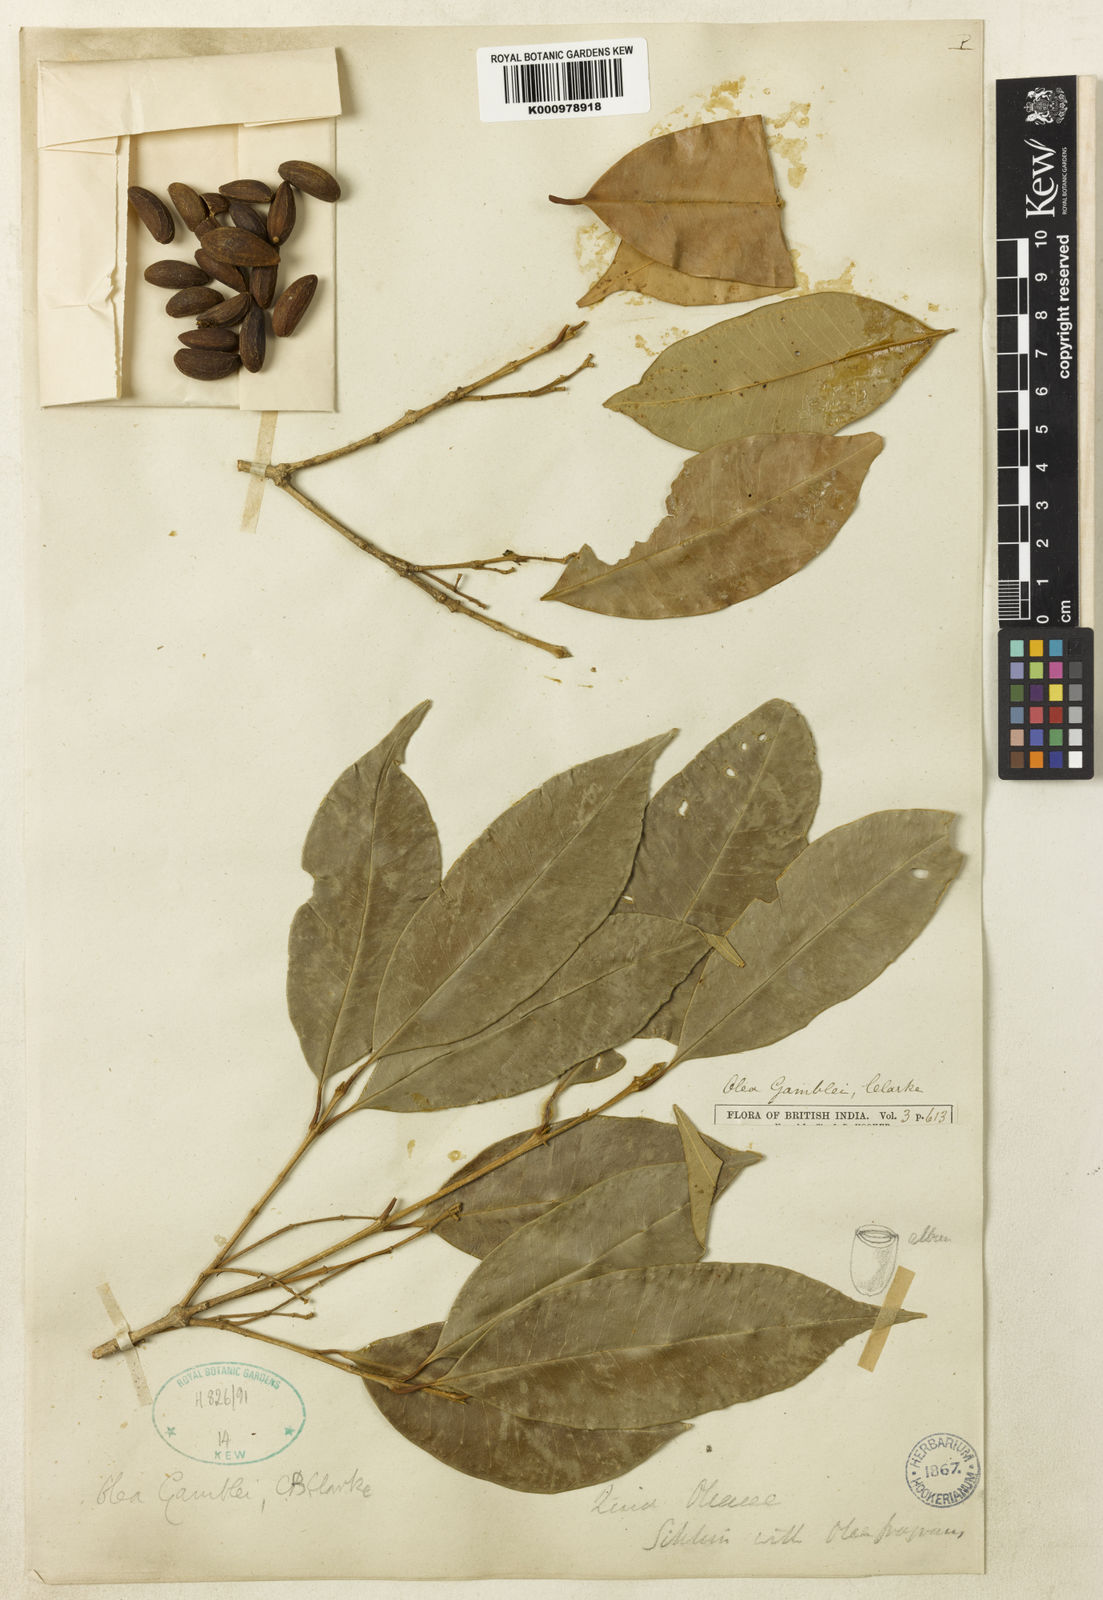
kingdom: Plantae
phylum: Tracheophyta
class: Magnoliopsida
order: Lamiales
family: Oleaceae
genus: Tetrapilus
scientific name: Tetrapilus gamblei
